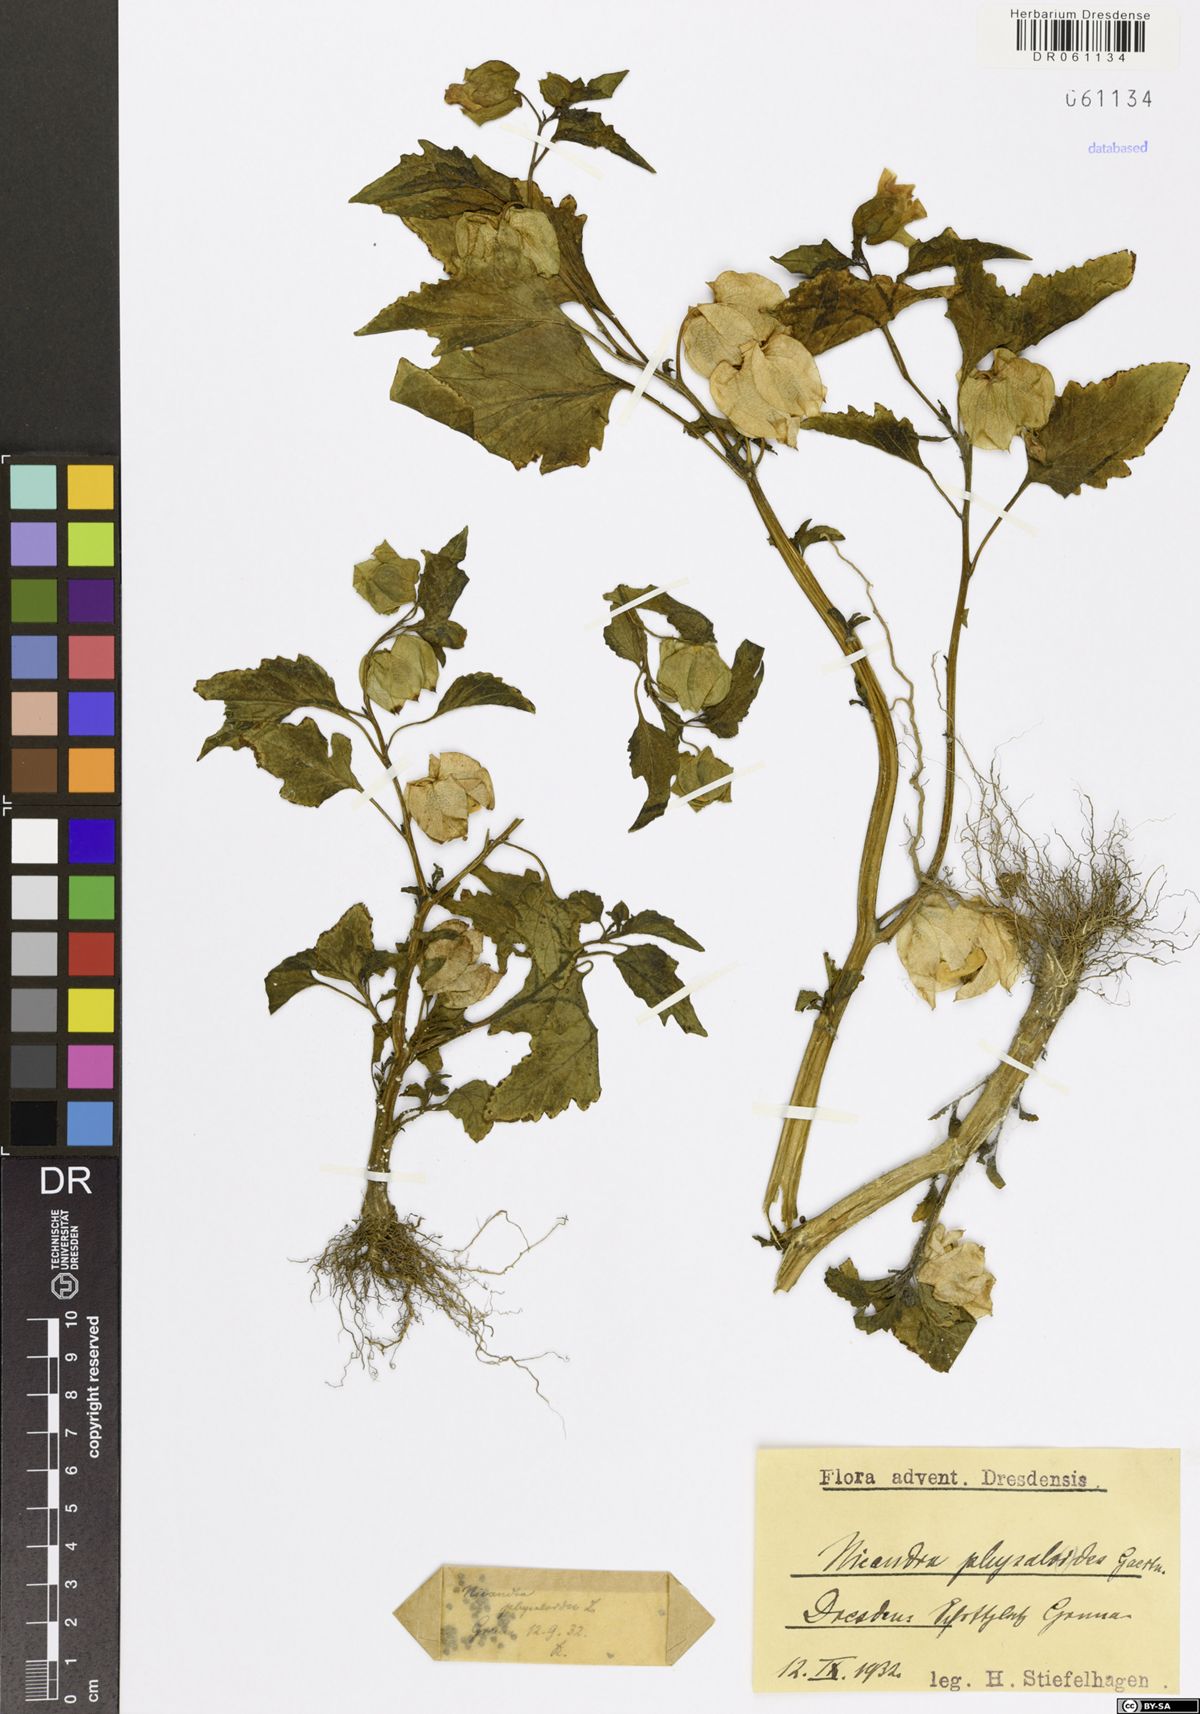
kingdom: Plantae
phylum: Tracheophyta
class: Magnoliopsida
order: Solanales
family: Solanaceae
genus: Nicandra
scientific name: Nicandra physalodes
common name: Apple-of-peru
